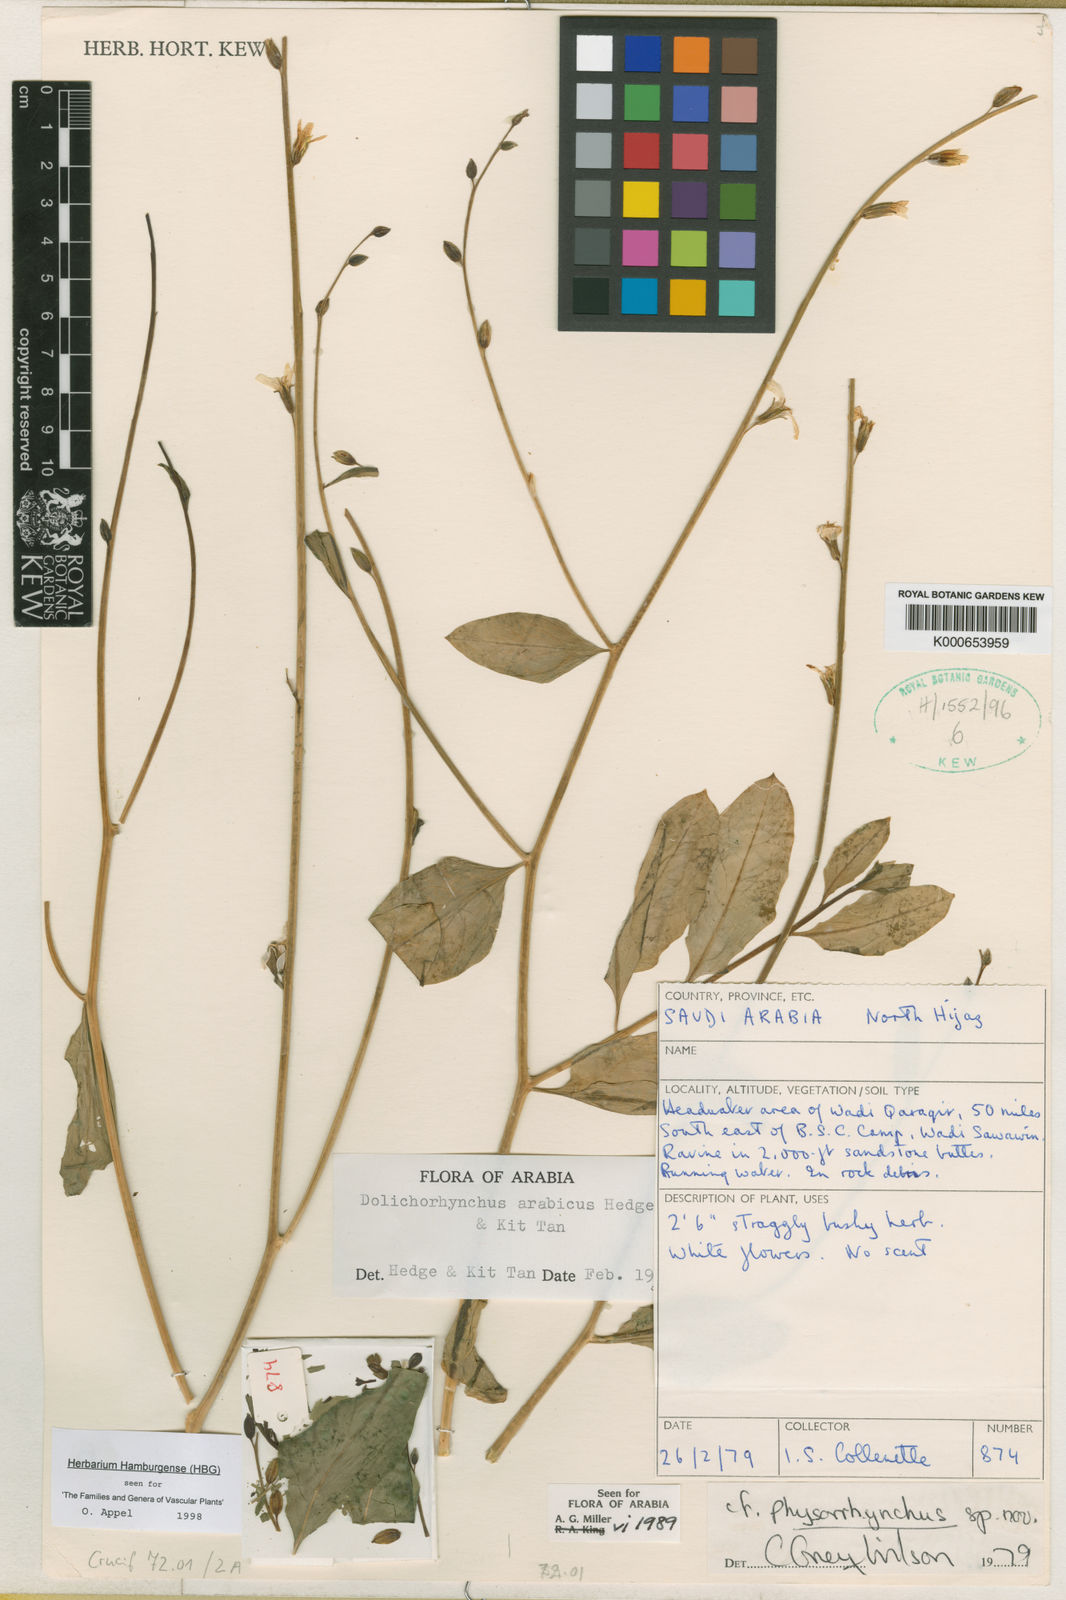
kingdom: Plantae
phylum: Tracheophyta
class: Magnoliopsida
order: Brassicales
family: Brassicaceae
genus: Douepea
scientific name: Douepea arabica
